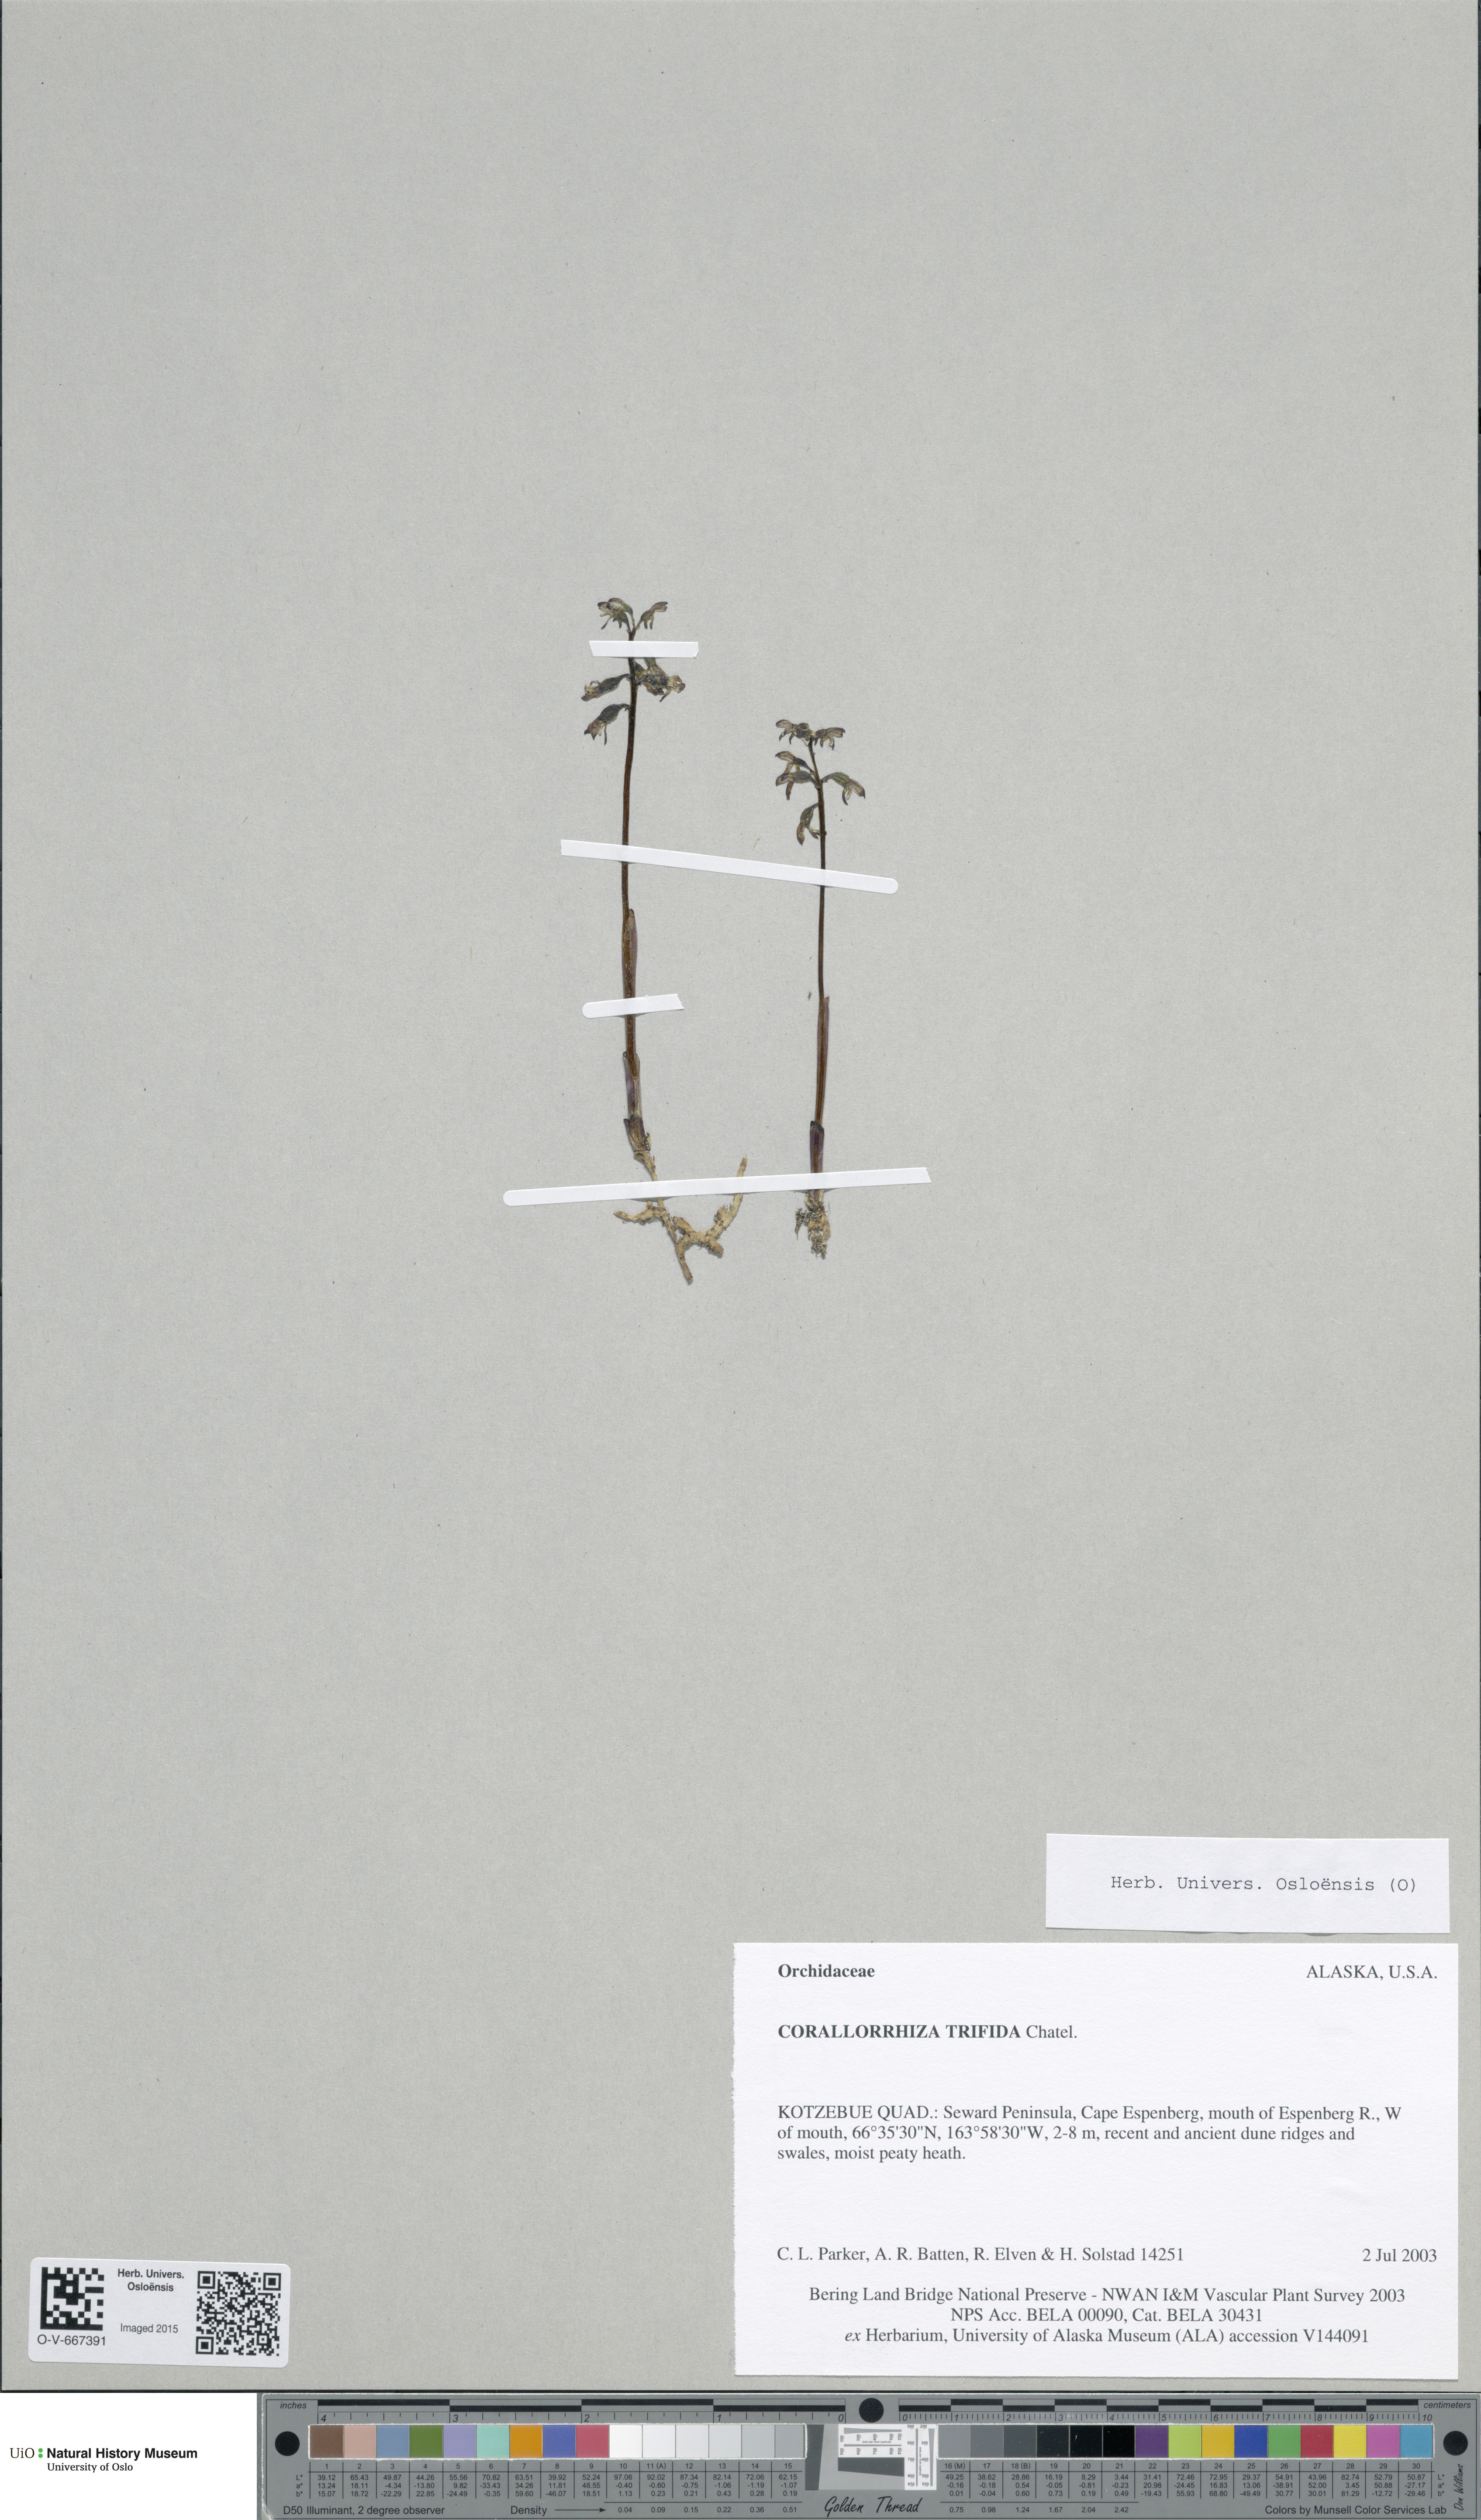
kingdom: Plantae
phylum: Tracheophyta
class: Liliopsida
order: Asparagales
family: Orchidaceae
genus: Corallorhiza
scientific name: Corallorhiza trifida
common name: Yellow coralroot
